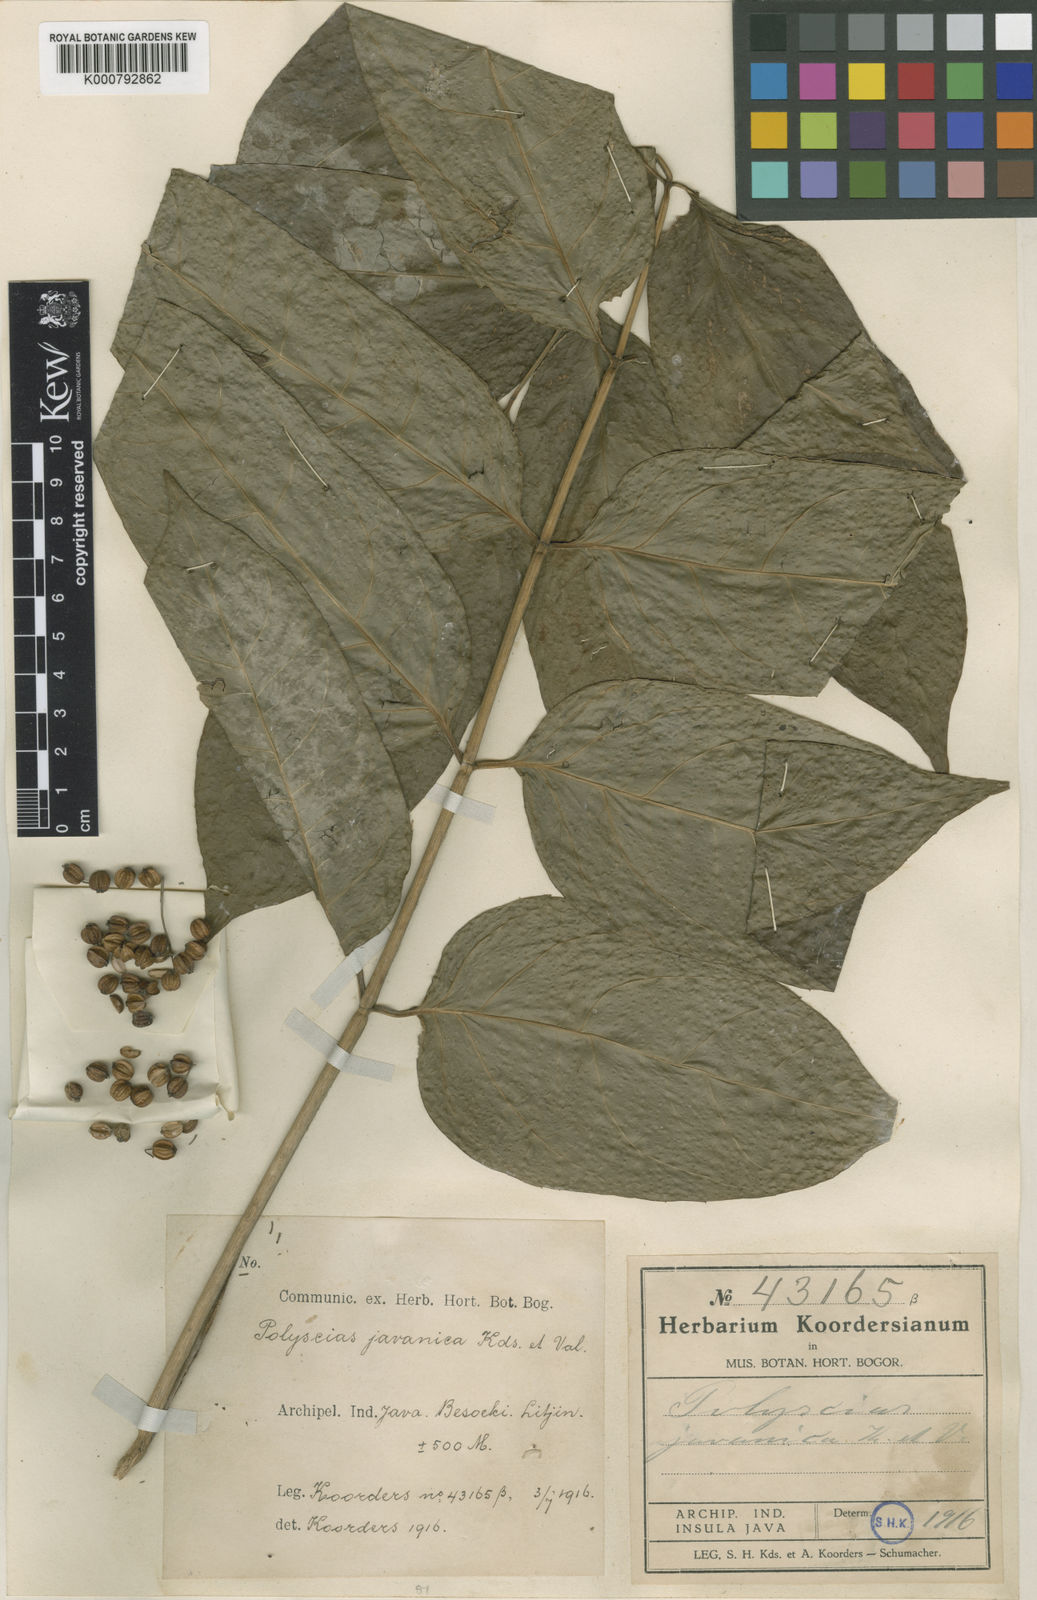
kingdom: Plantae
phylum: Tracheophyta
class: Magnoliopsida
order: Apiales
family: Araliaceae
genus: Polyscias
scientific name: Polyscias javanica
